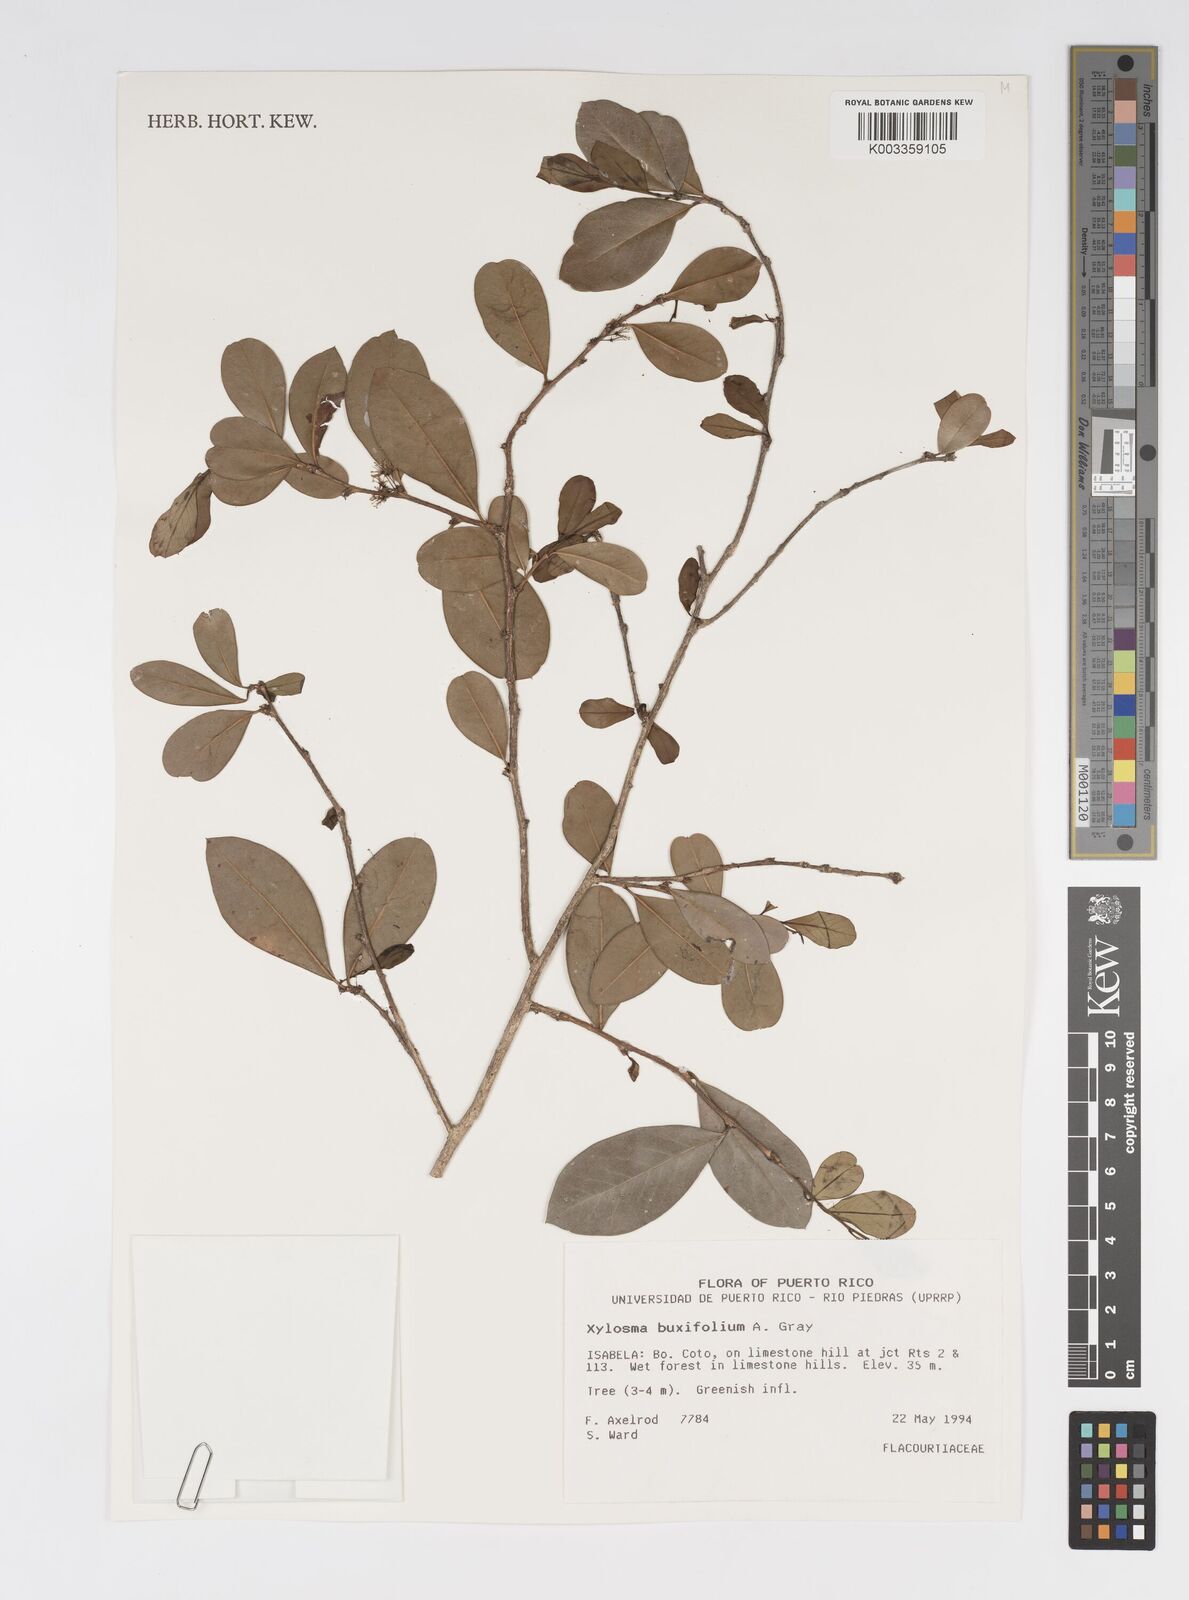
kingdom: Plantae
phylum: Tracheophyta
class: Magnoliopsida
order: Malpighiales
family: Salicaceae
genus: Xylosma
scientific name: Xylosma buxifolia
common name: Cockspur
